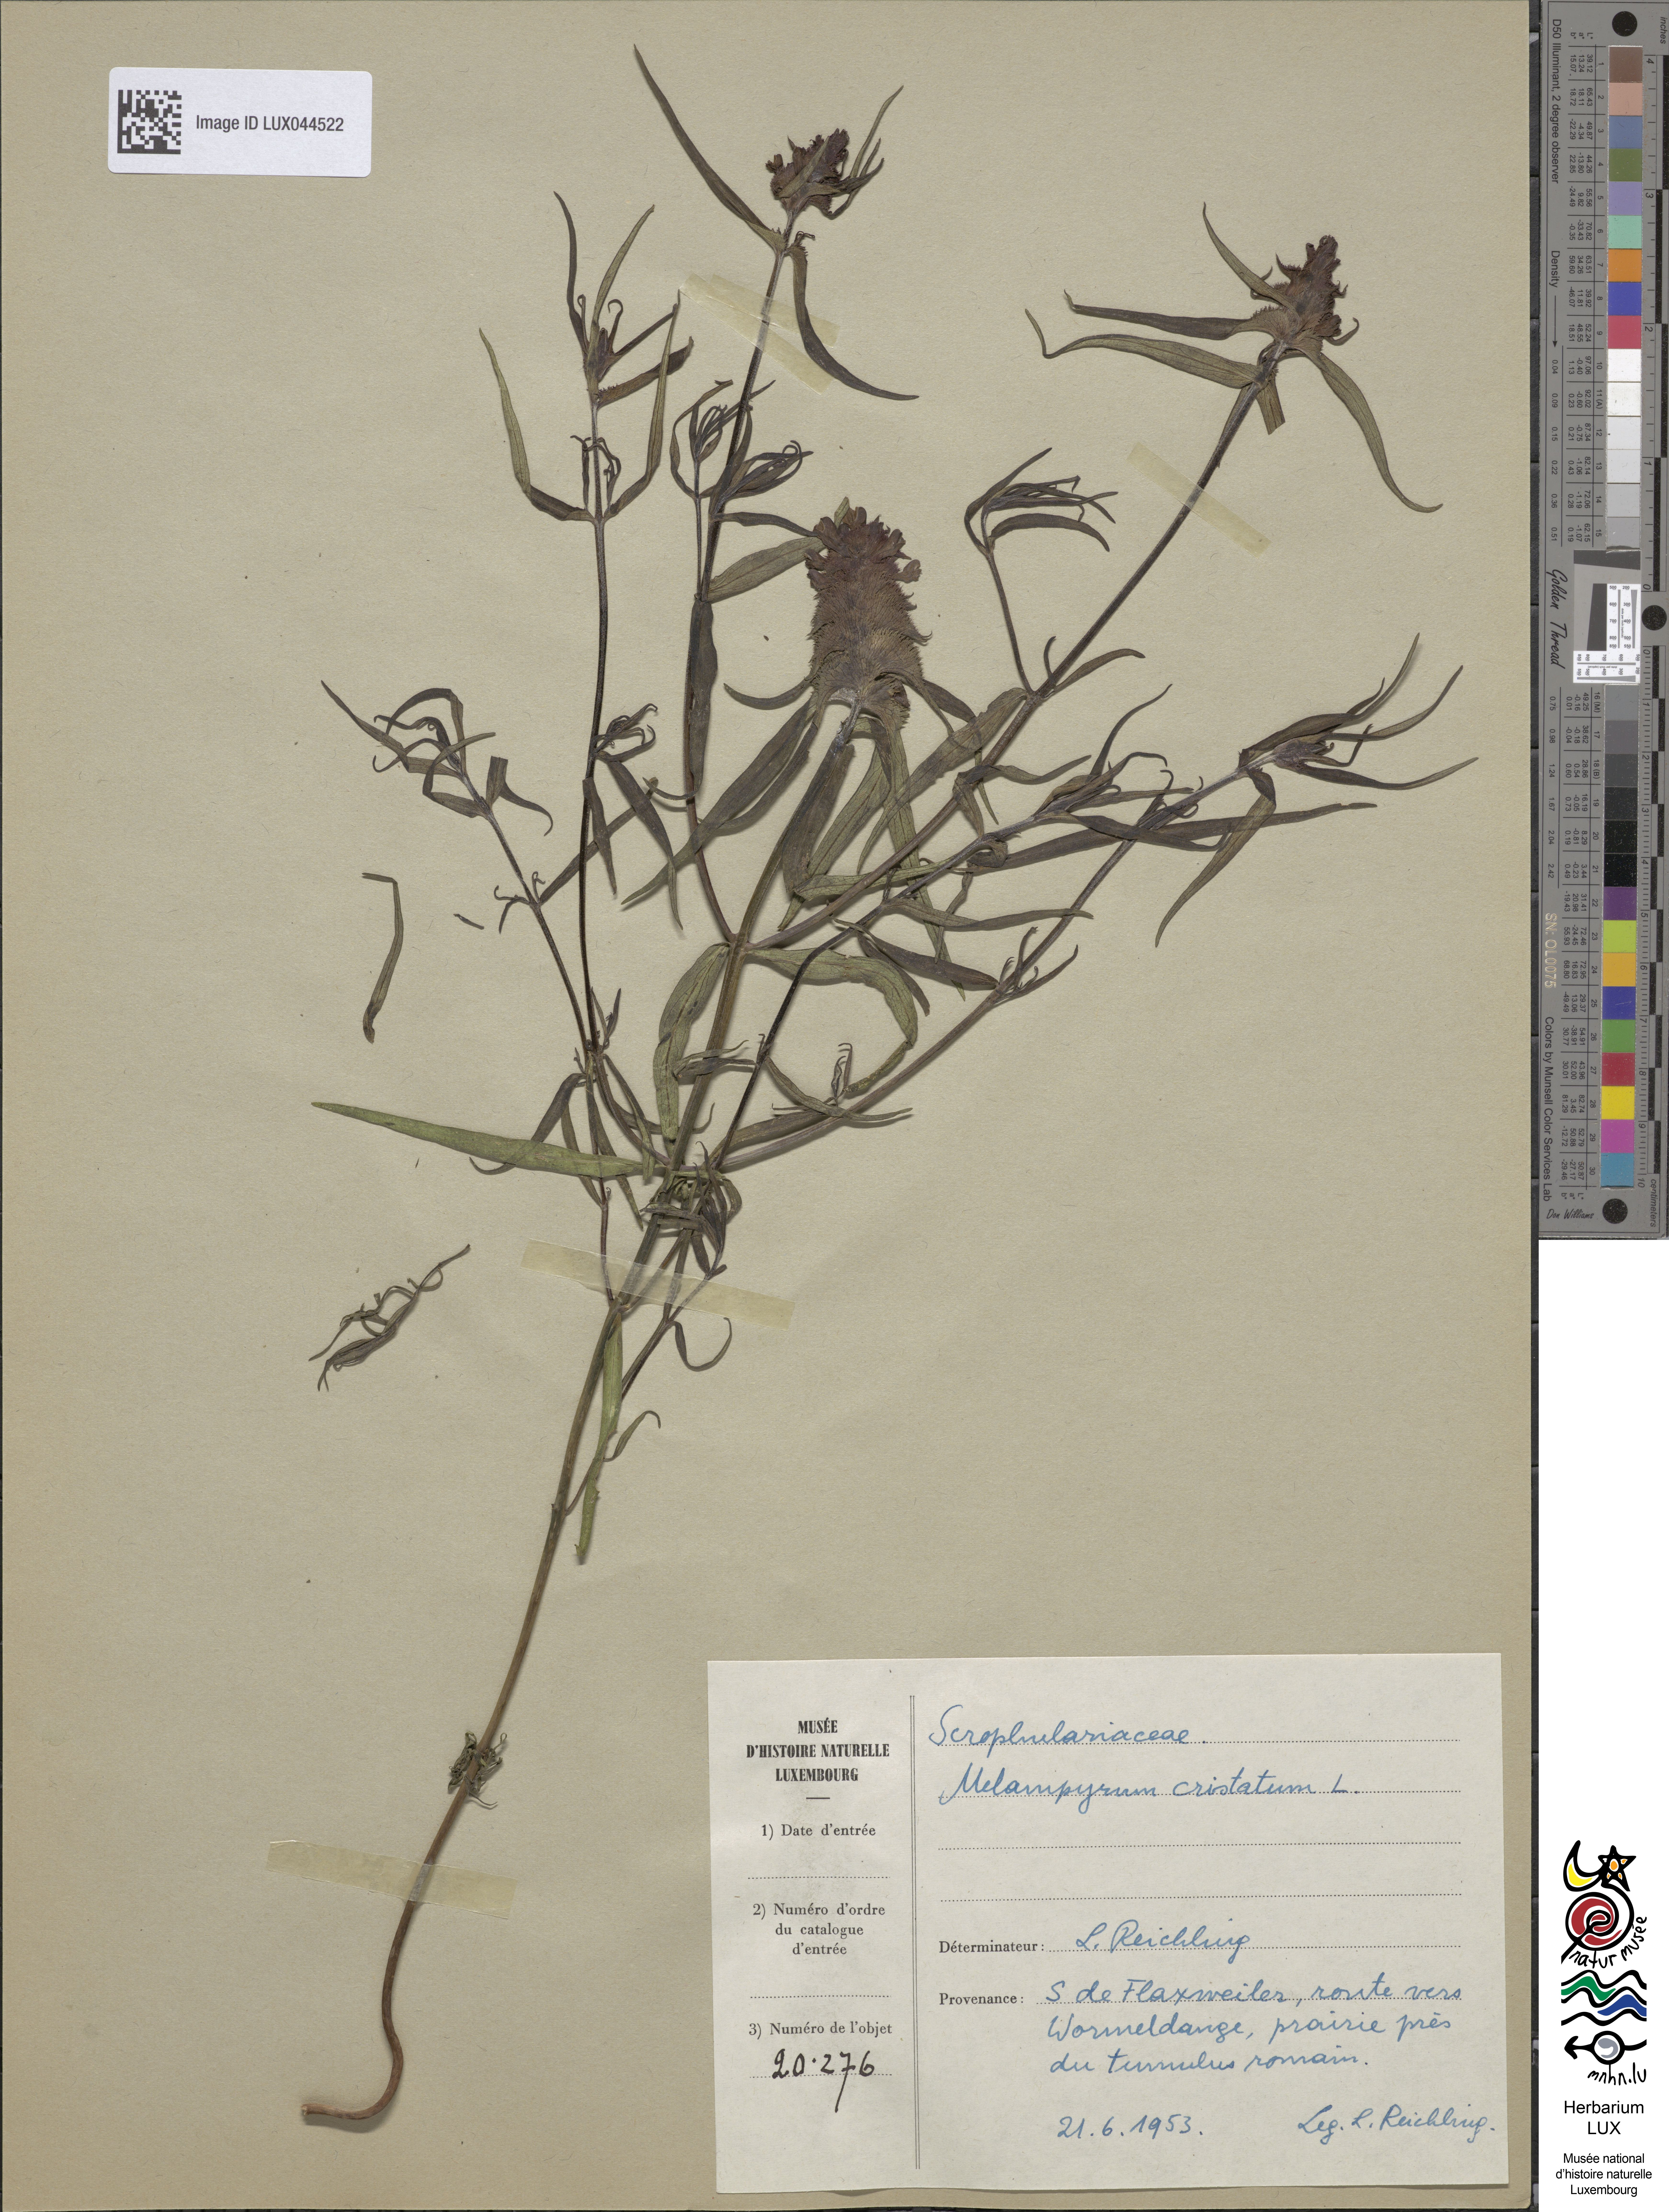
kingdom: Plantae
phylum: Tracheophyta
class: Magnoliopsida
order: Lamiales
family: Orobanchaceae
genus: Melampyrum
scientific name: Melampyrum cristatum
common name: Crested cow-wheat
